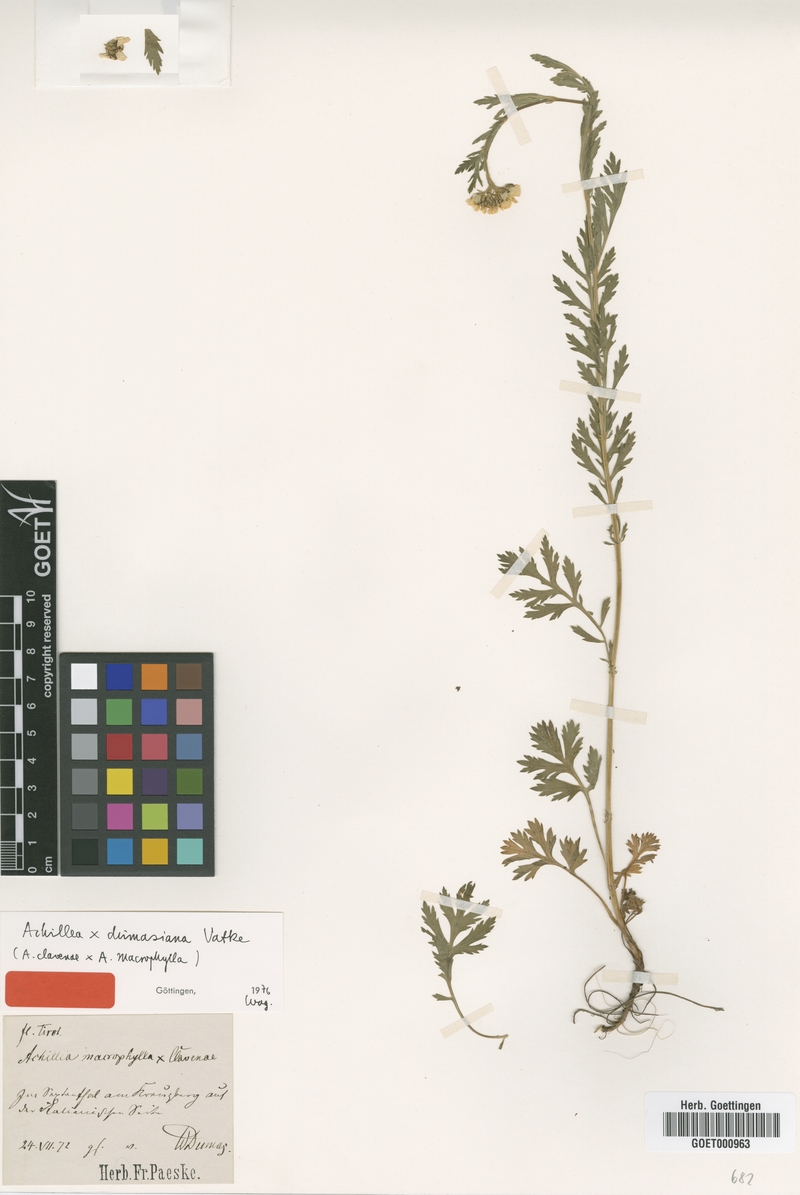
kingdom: Plantae
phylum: Tracheophyta
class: Magnoliopsida
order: Asterales
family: Asteraceae
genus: Achillea
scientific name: Achillea dumasiana
